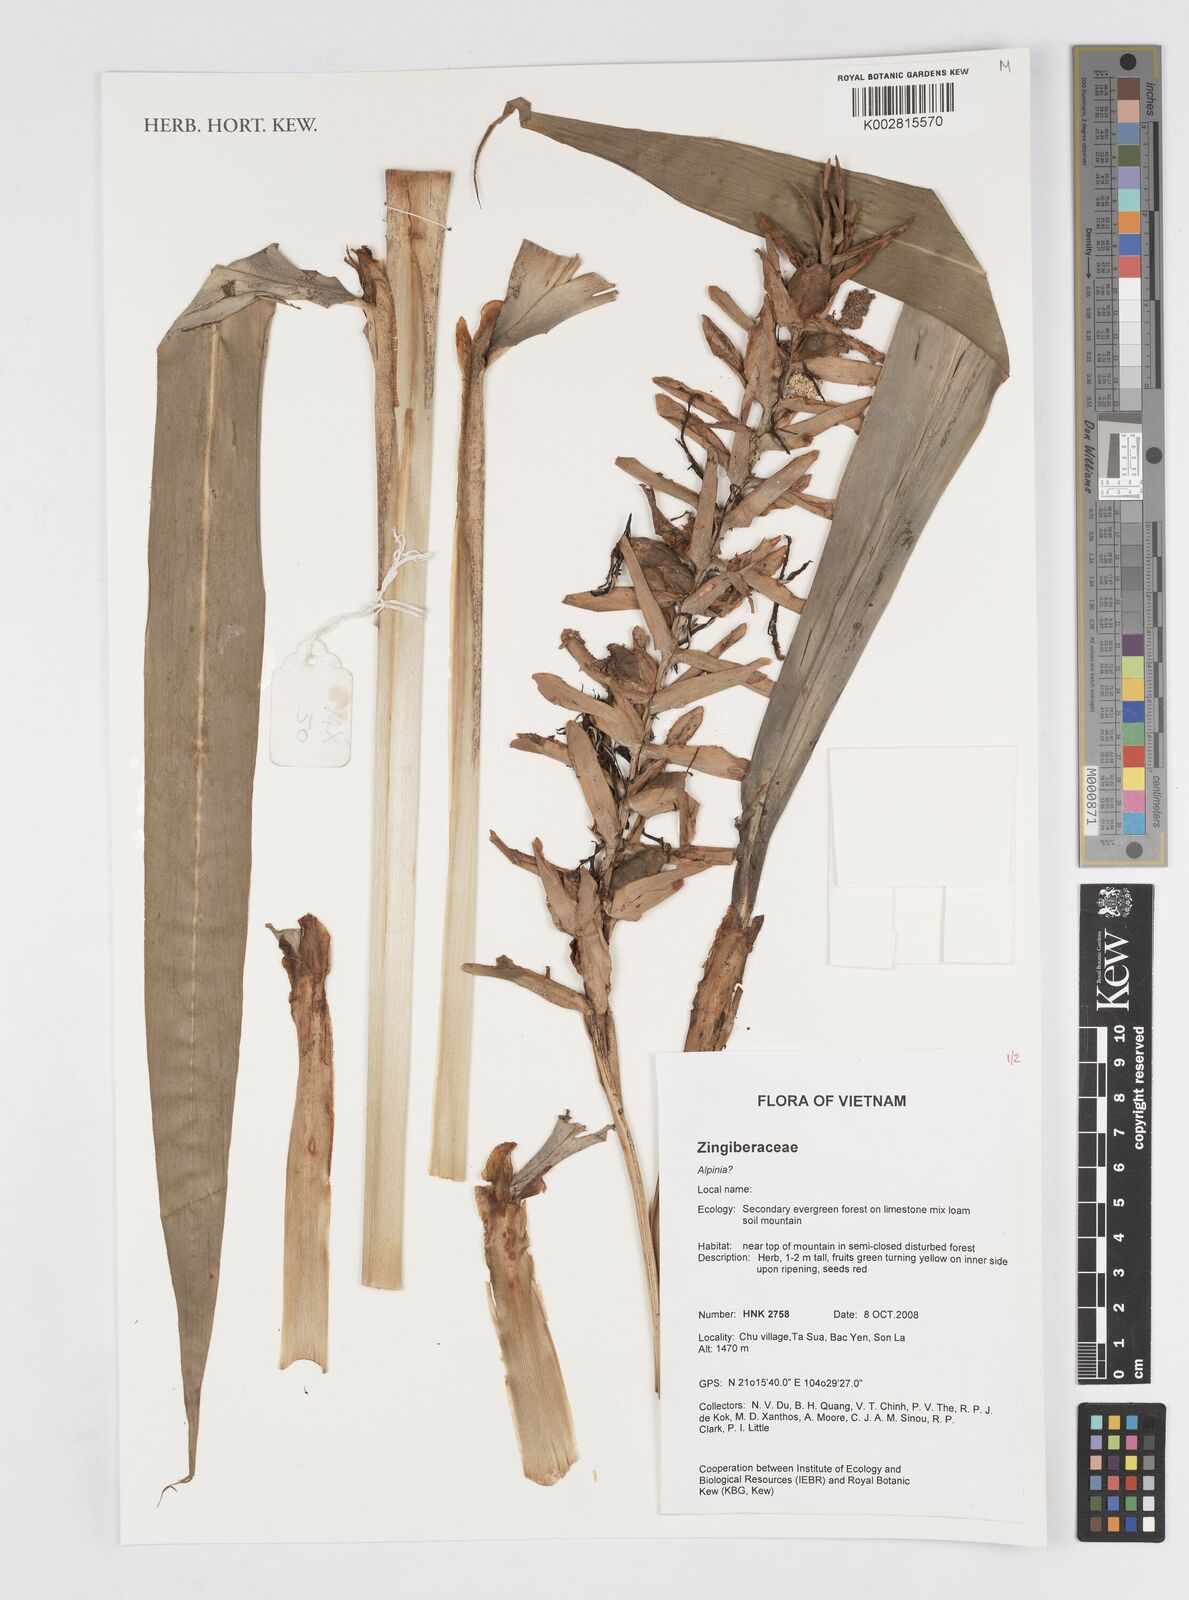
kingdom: Plantae
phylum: Tracheophyta
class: Liliopsida
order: Zingiberales
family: Zingiberaceae
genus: Alpinia
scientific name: Alpinia
